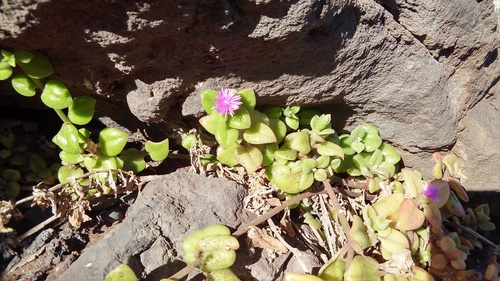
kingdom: Plantae
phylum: Tracheophyta
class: Magnoliopsida
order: Caryophyllales
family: Aizoaceae
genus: Mesembryanthemum
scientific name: Mesembryanthemum cordifolium
